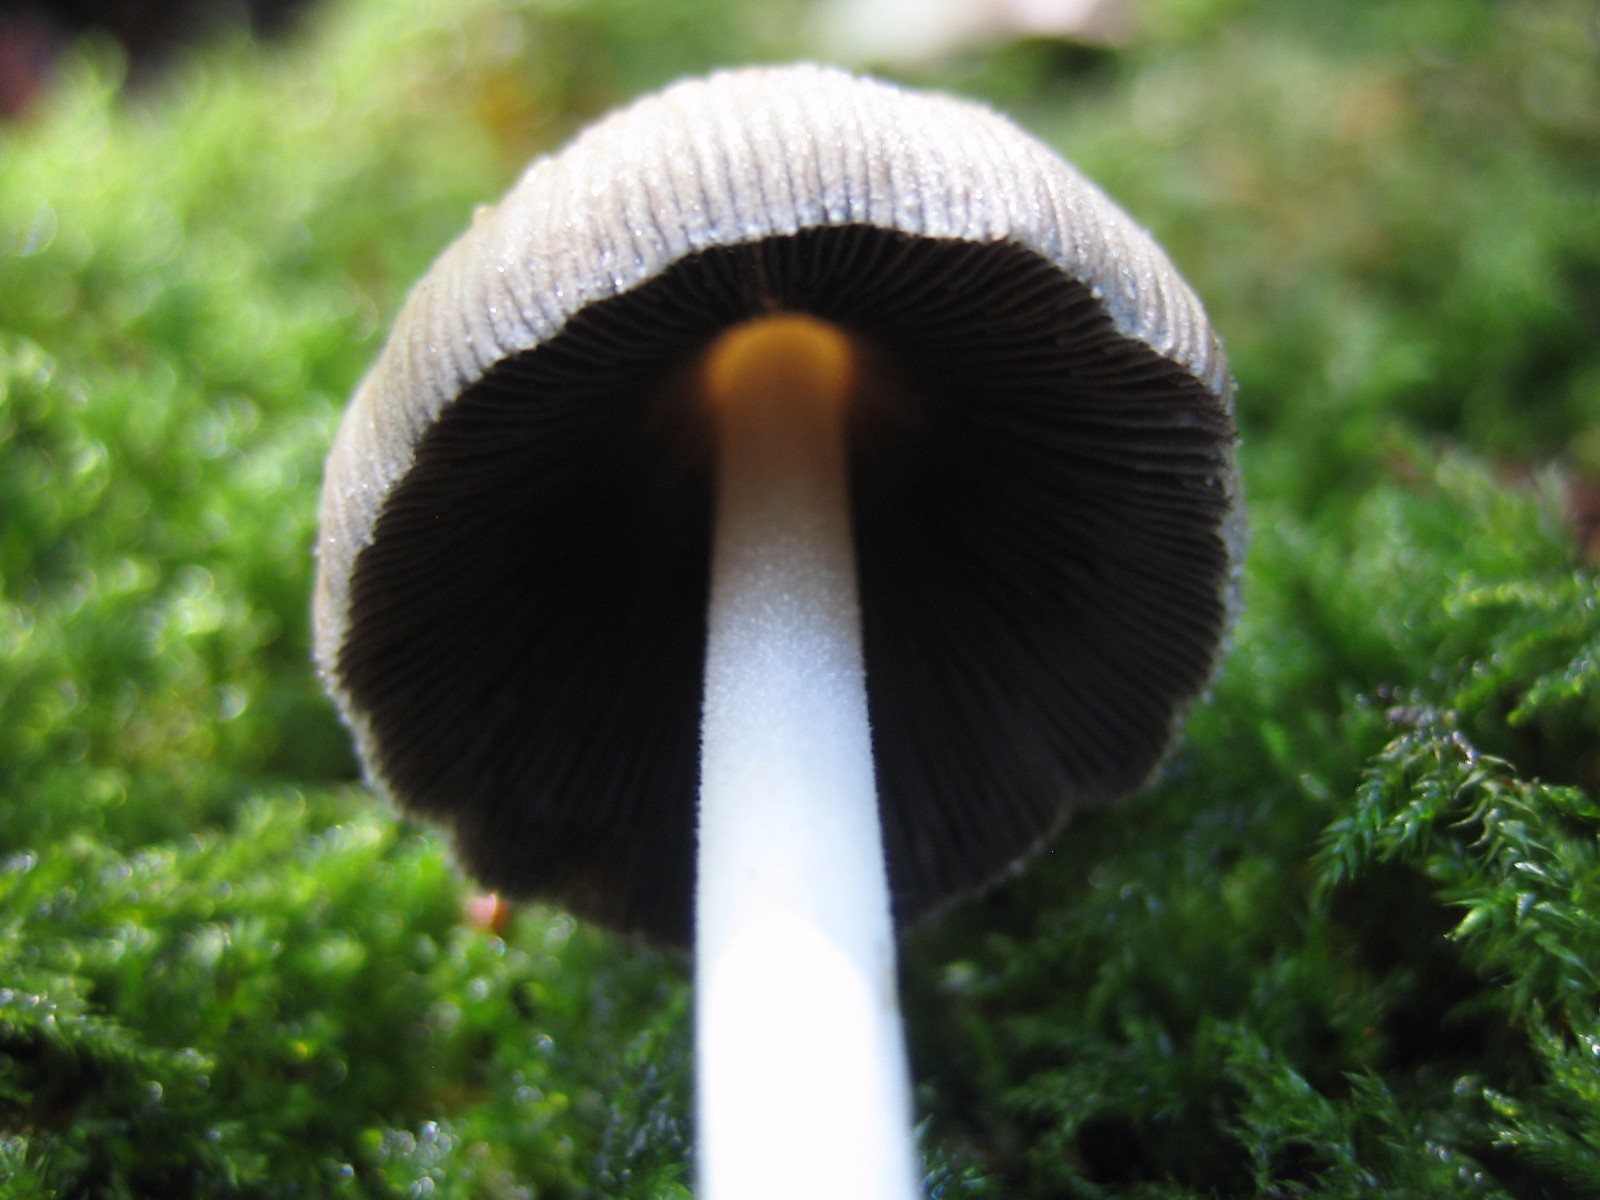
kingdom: Fungi
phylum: Basidiomycota
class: Agaricomycetes
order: Agaricales
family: Psathyrellaceae
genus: Coprinellus
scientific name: Coprinellus micaceus
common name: glimmer-blækhat
